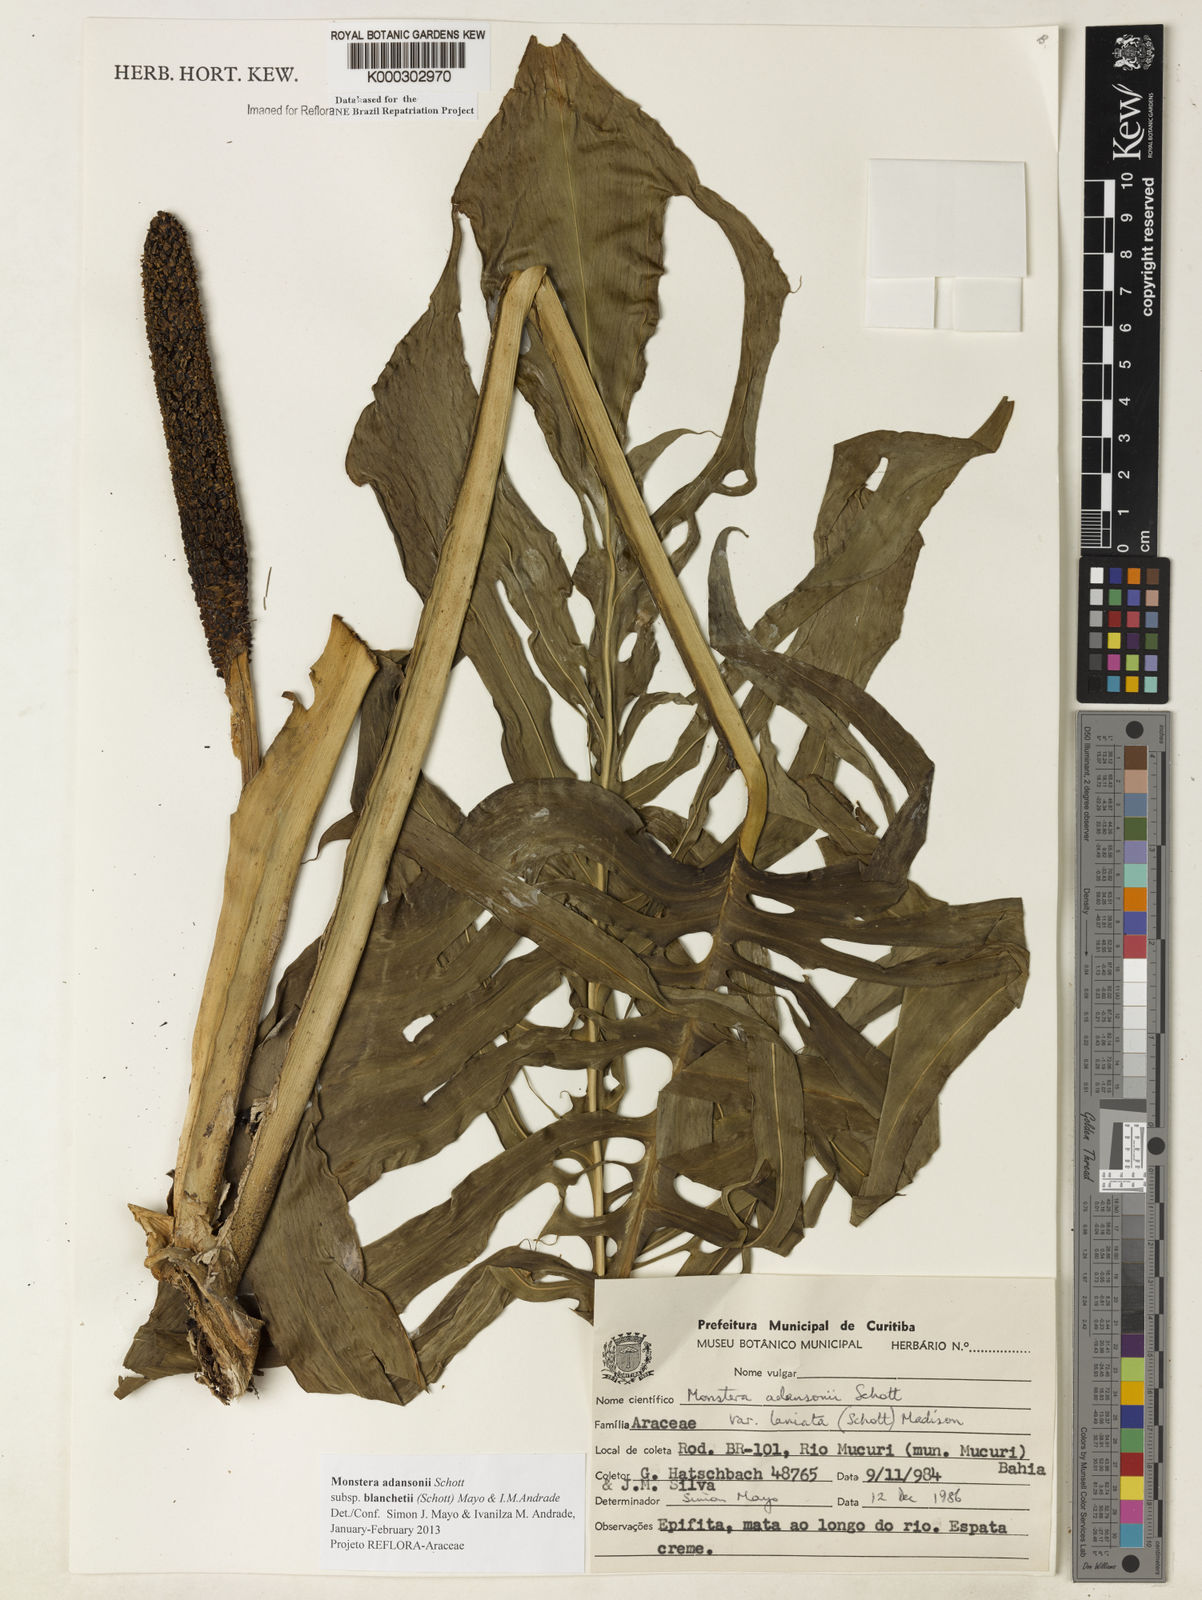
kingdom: Plantae
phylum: Tracheophyta
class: Liliopsida
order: Alismatales
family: Araceae
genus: Monstera
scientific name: Monstera adansonii
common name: Tarovine
